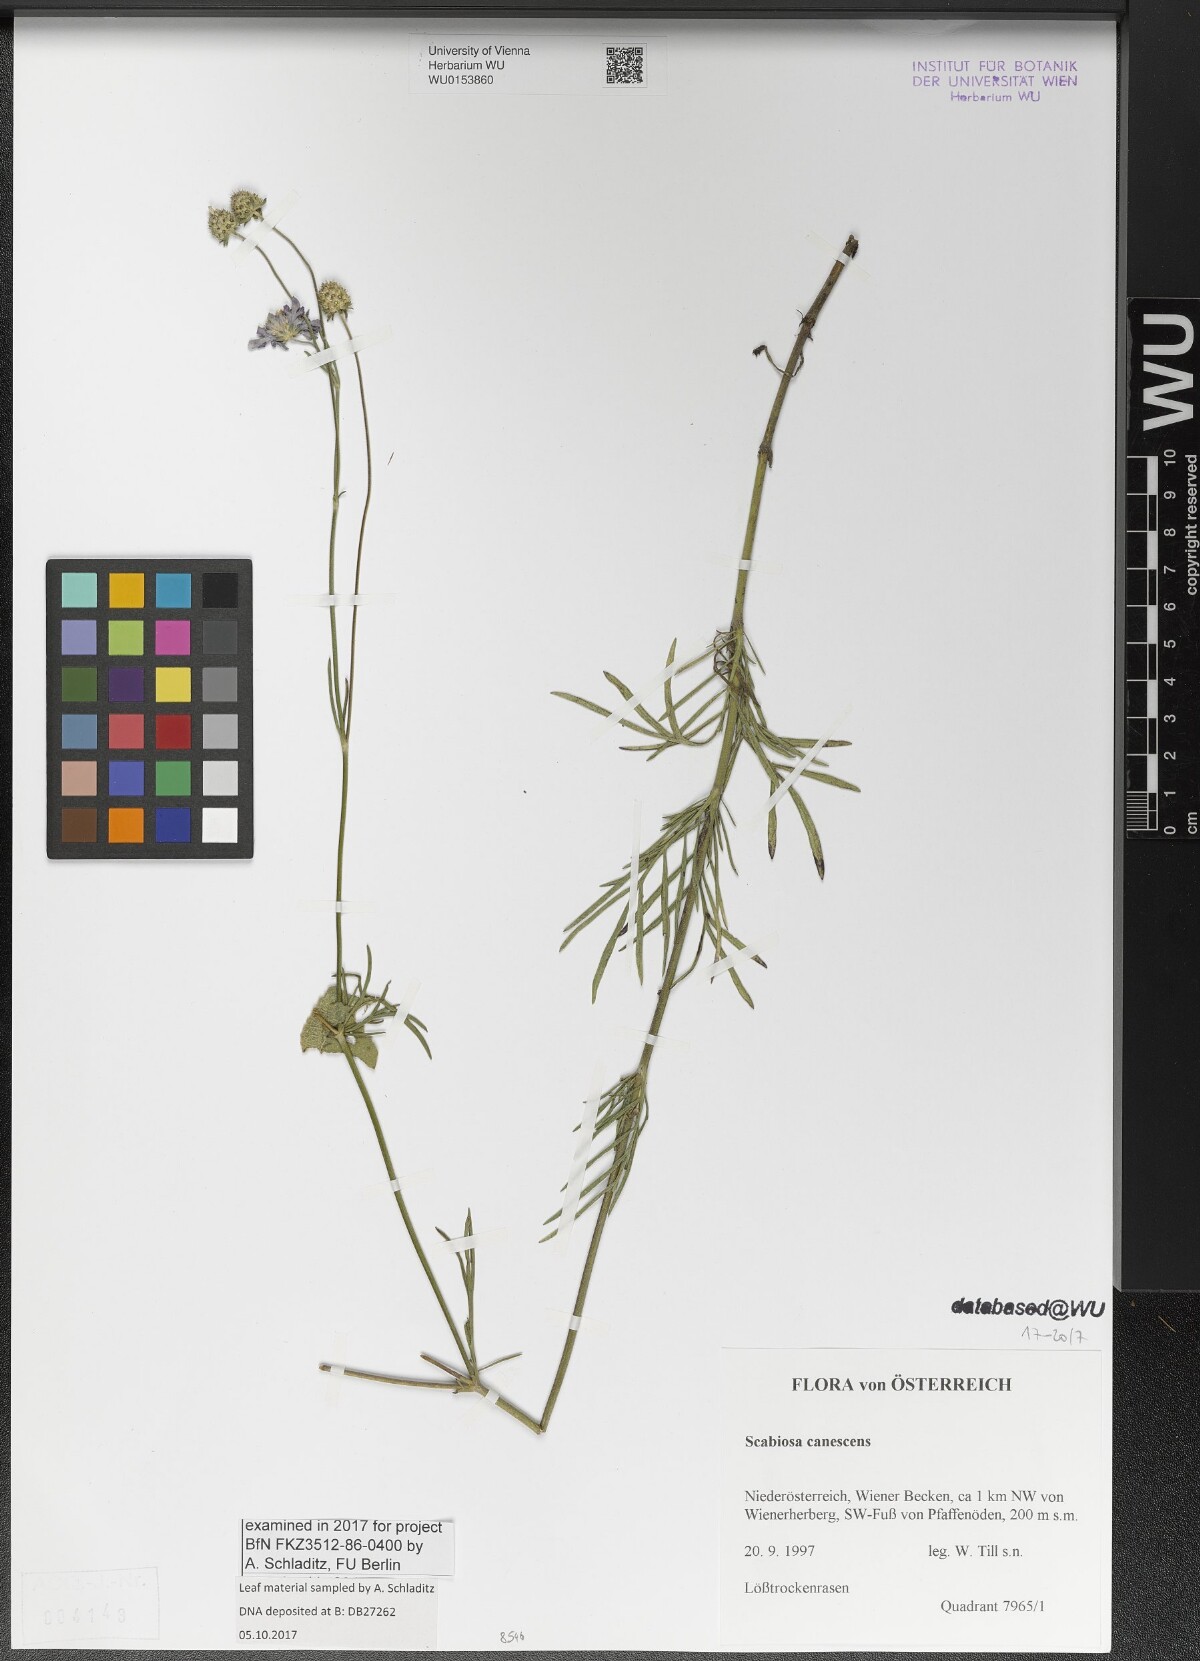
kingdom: Plantae
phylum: Tracheophyta
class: Magnoliopsida
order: Dipsacales
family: Caprifoliaceae
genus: Scabiosa
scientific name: Scabiosa canescens
